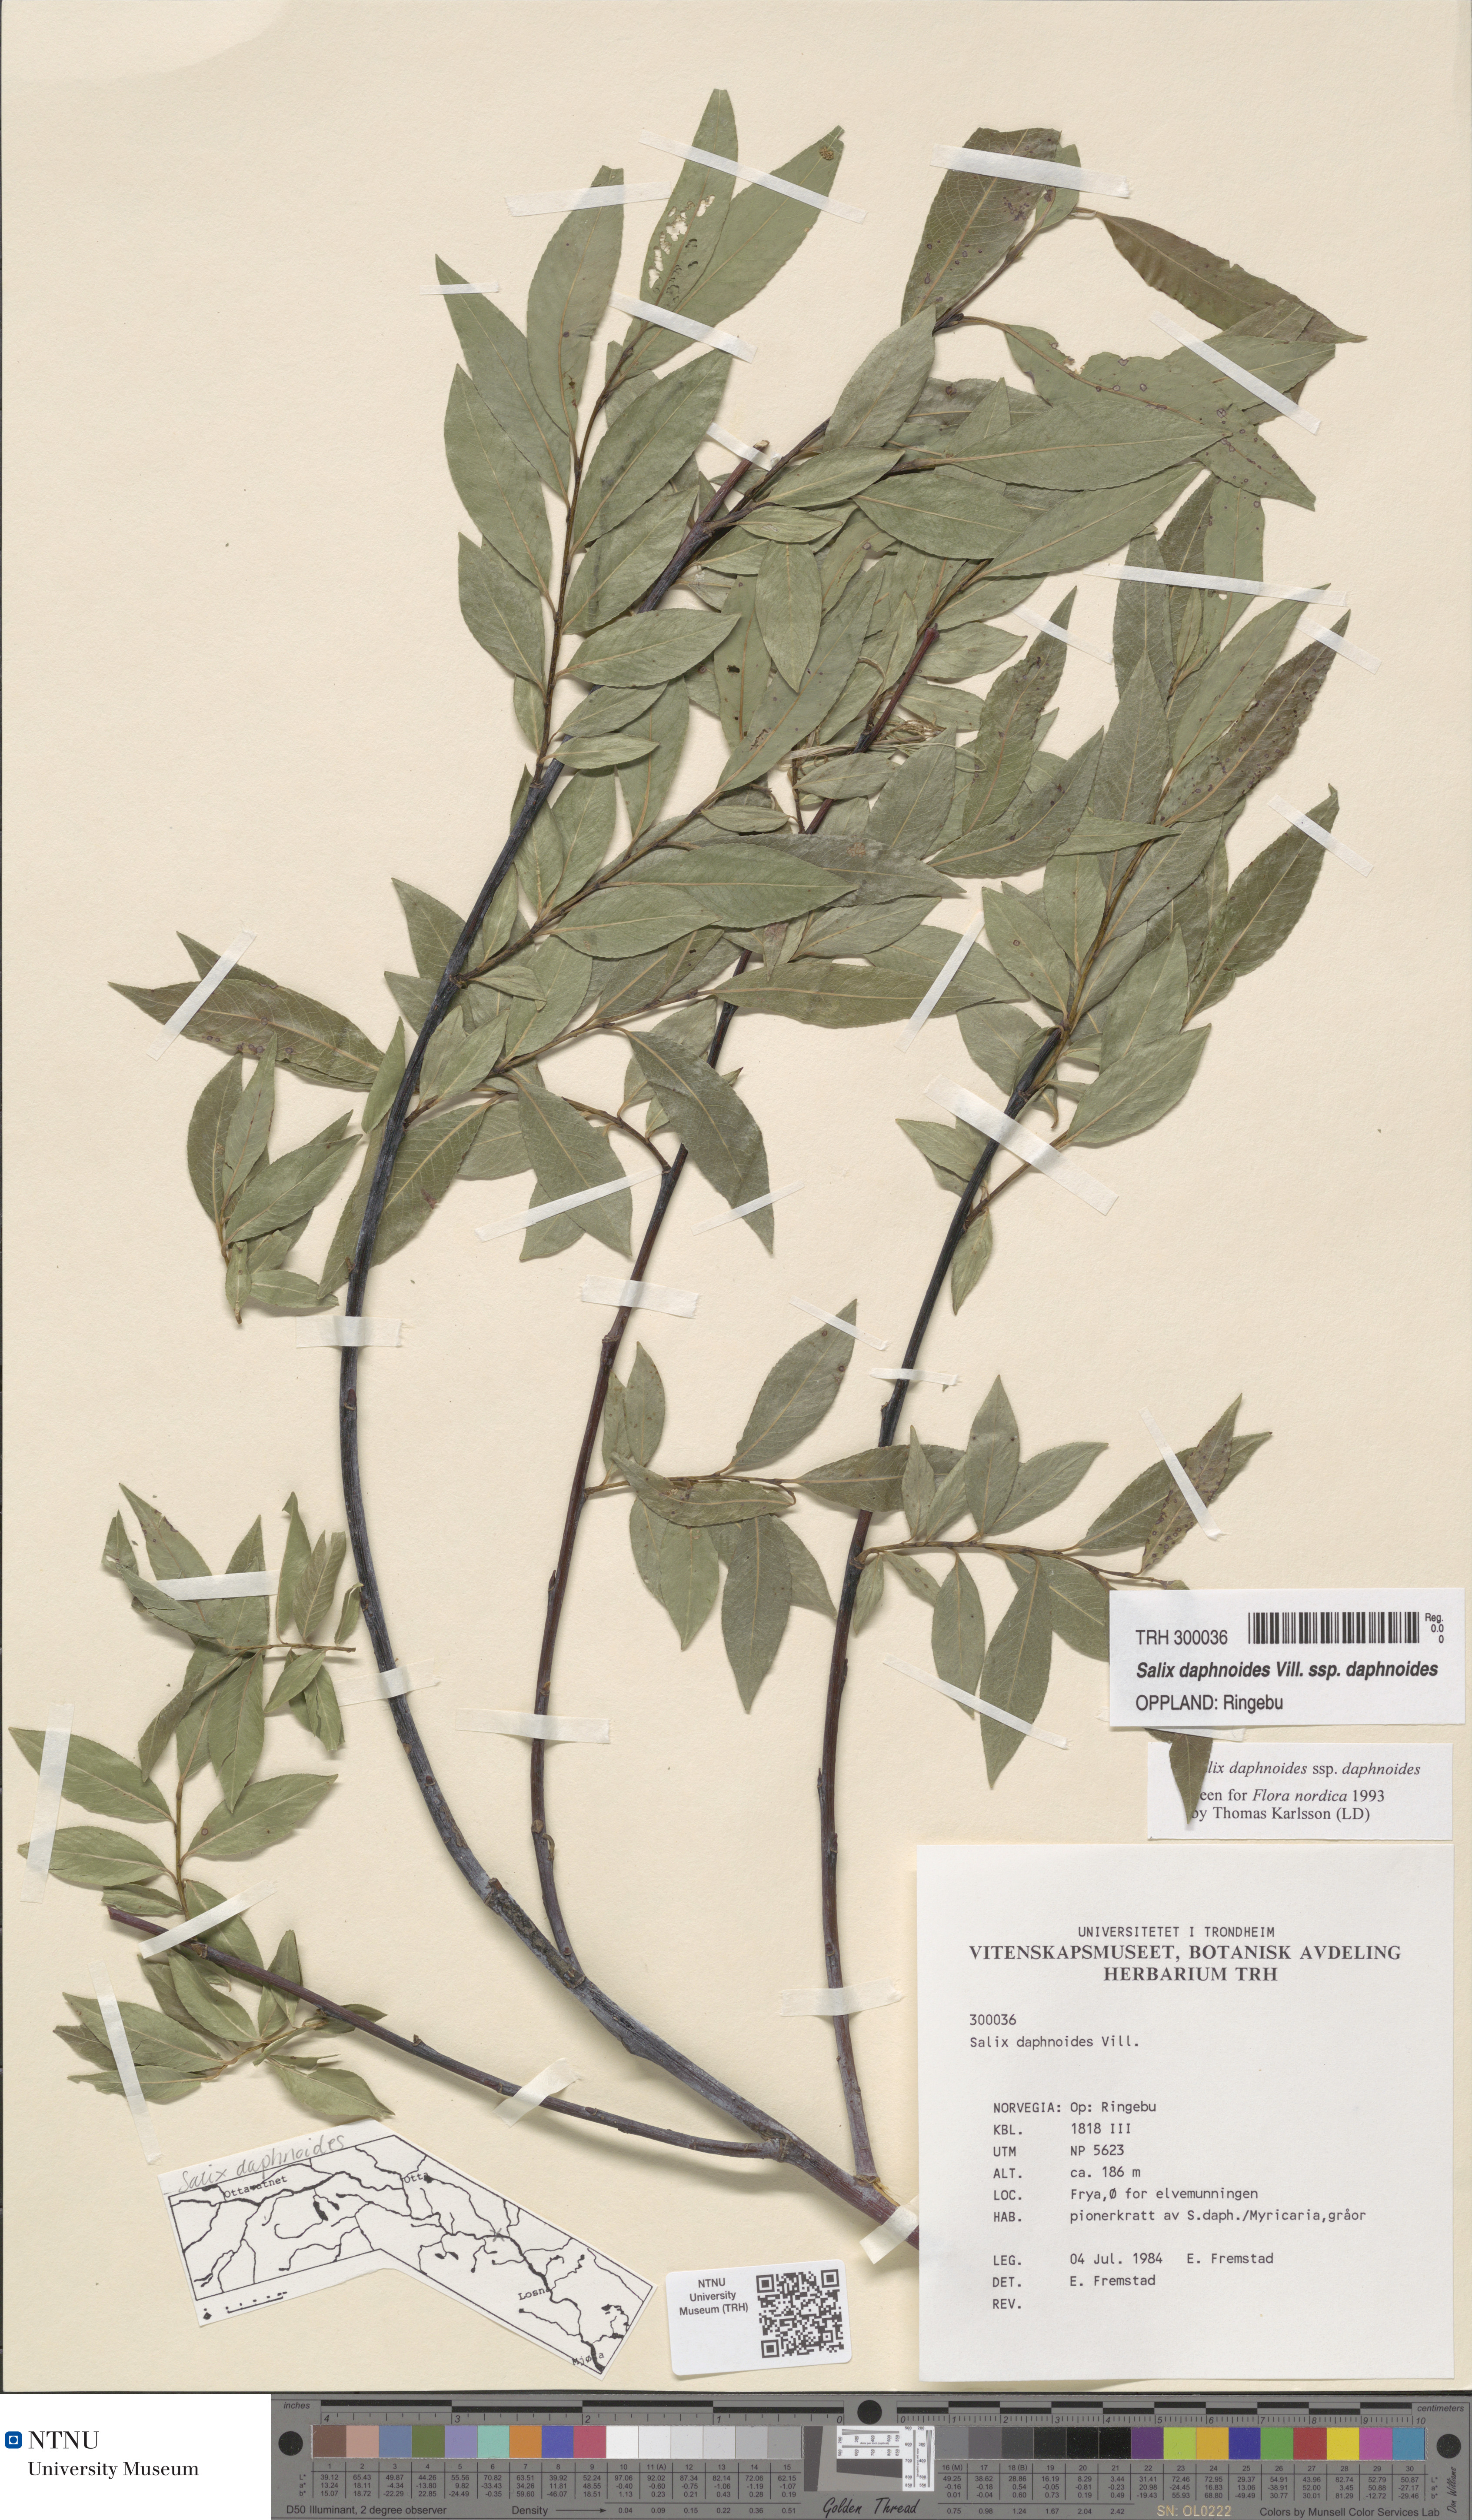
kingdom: Plantae
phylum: Tracheophyta
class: Magnoliopsida
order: Malpighiales
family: Salicaceae
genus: Salix
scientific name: Salix daphnoides
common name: European violet-willow
